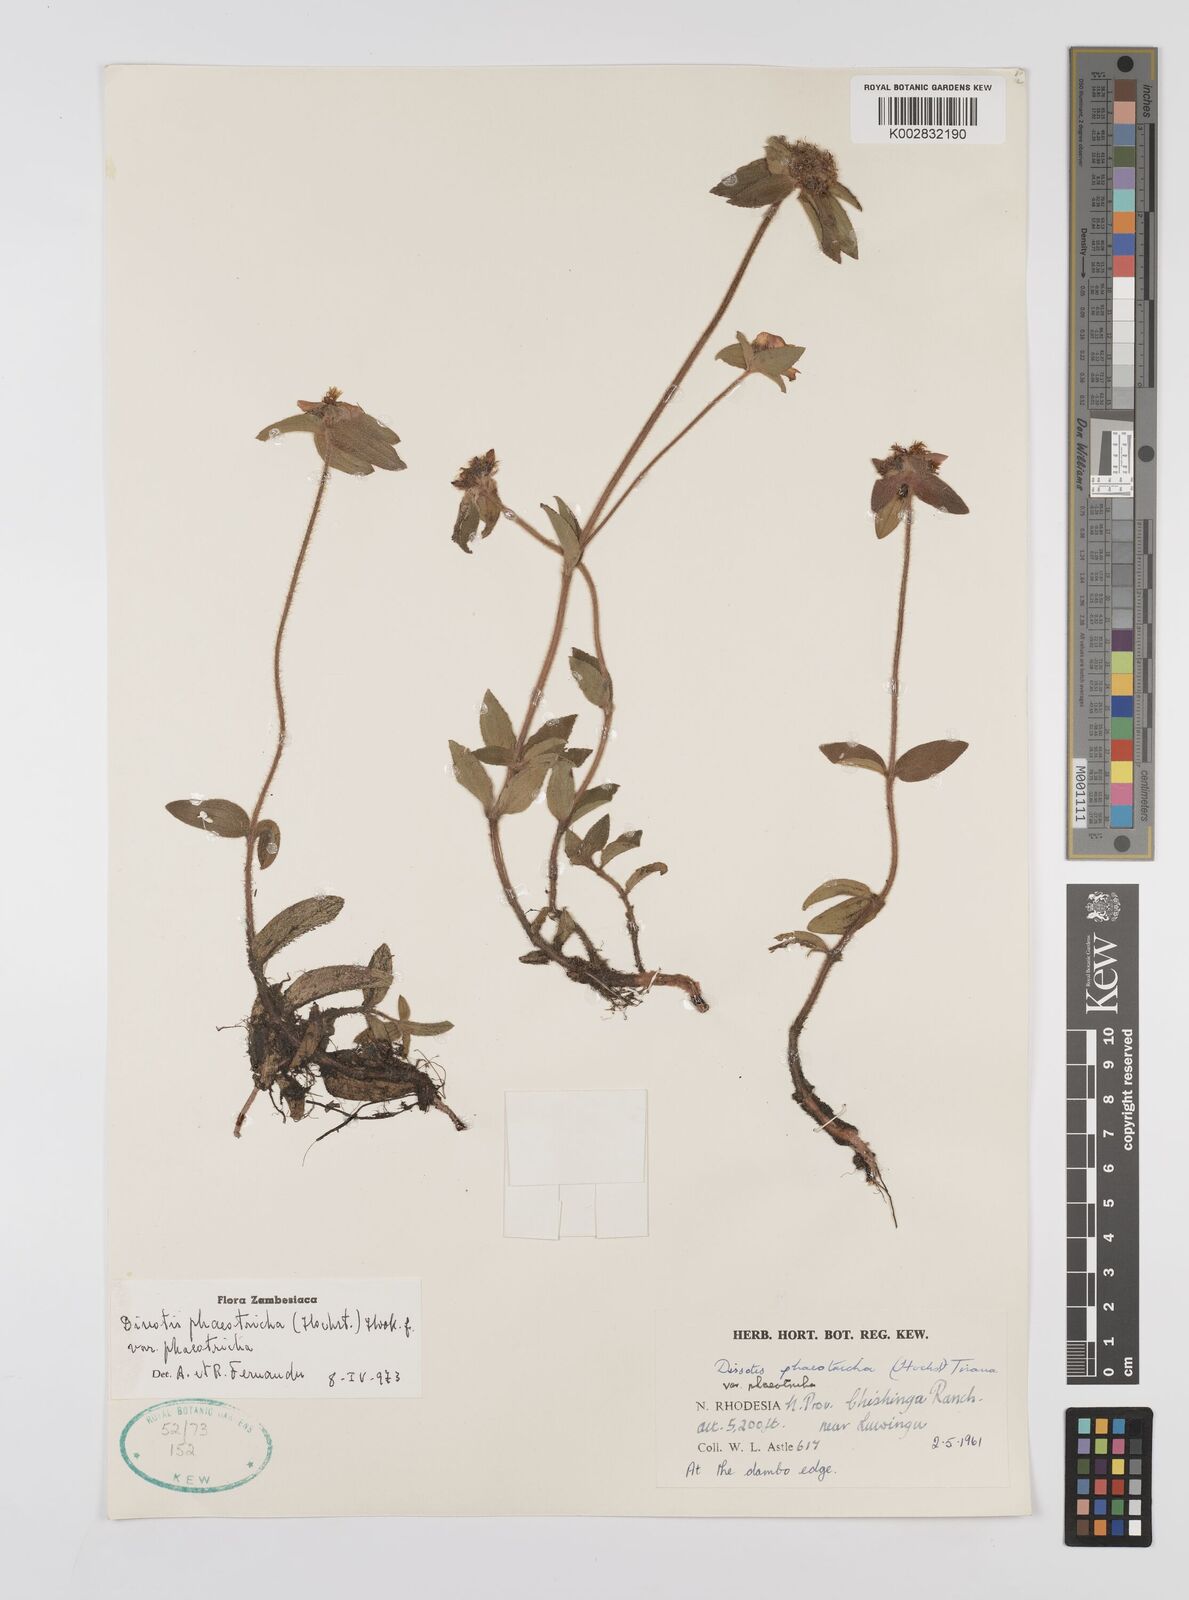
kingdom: Plantae
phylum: Tracheophyta
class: Magnoliopsida
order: Myrtales
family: Melastomataceae
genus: Antherotoma
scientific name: Antherotoma phaeotricha
